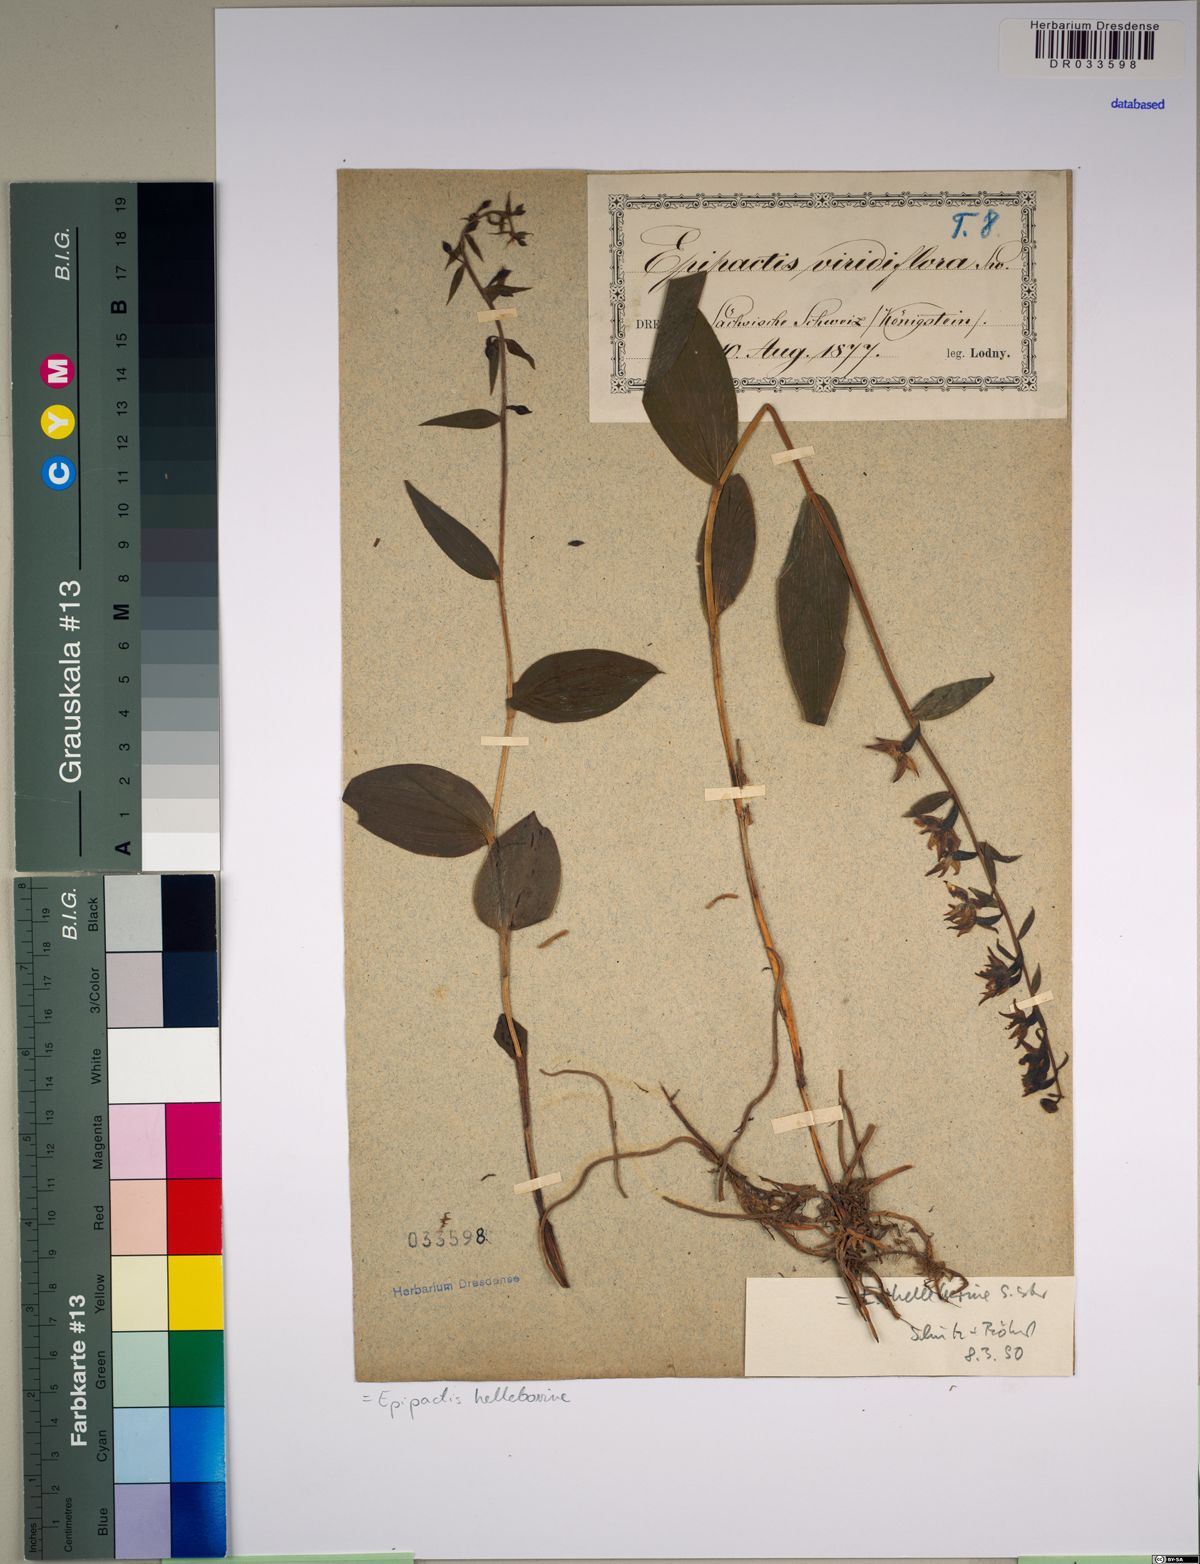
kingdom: Plantae
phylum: Tracheophyta
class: Liliopsida
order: Asparagales
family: Orchidaceae
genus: Epipactis
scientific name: Epipactis helleborine
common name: Broad-leaved helleborine
